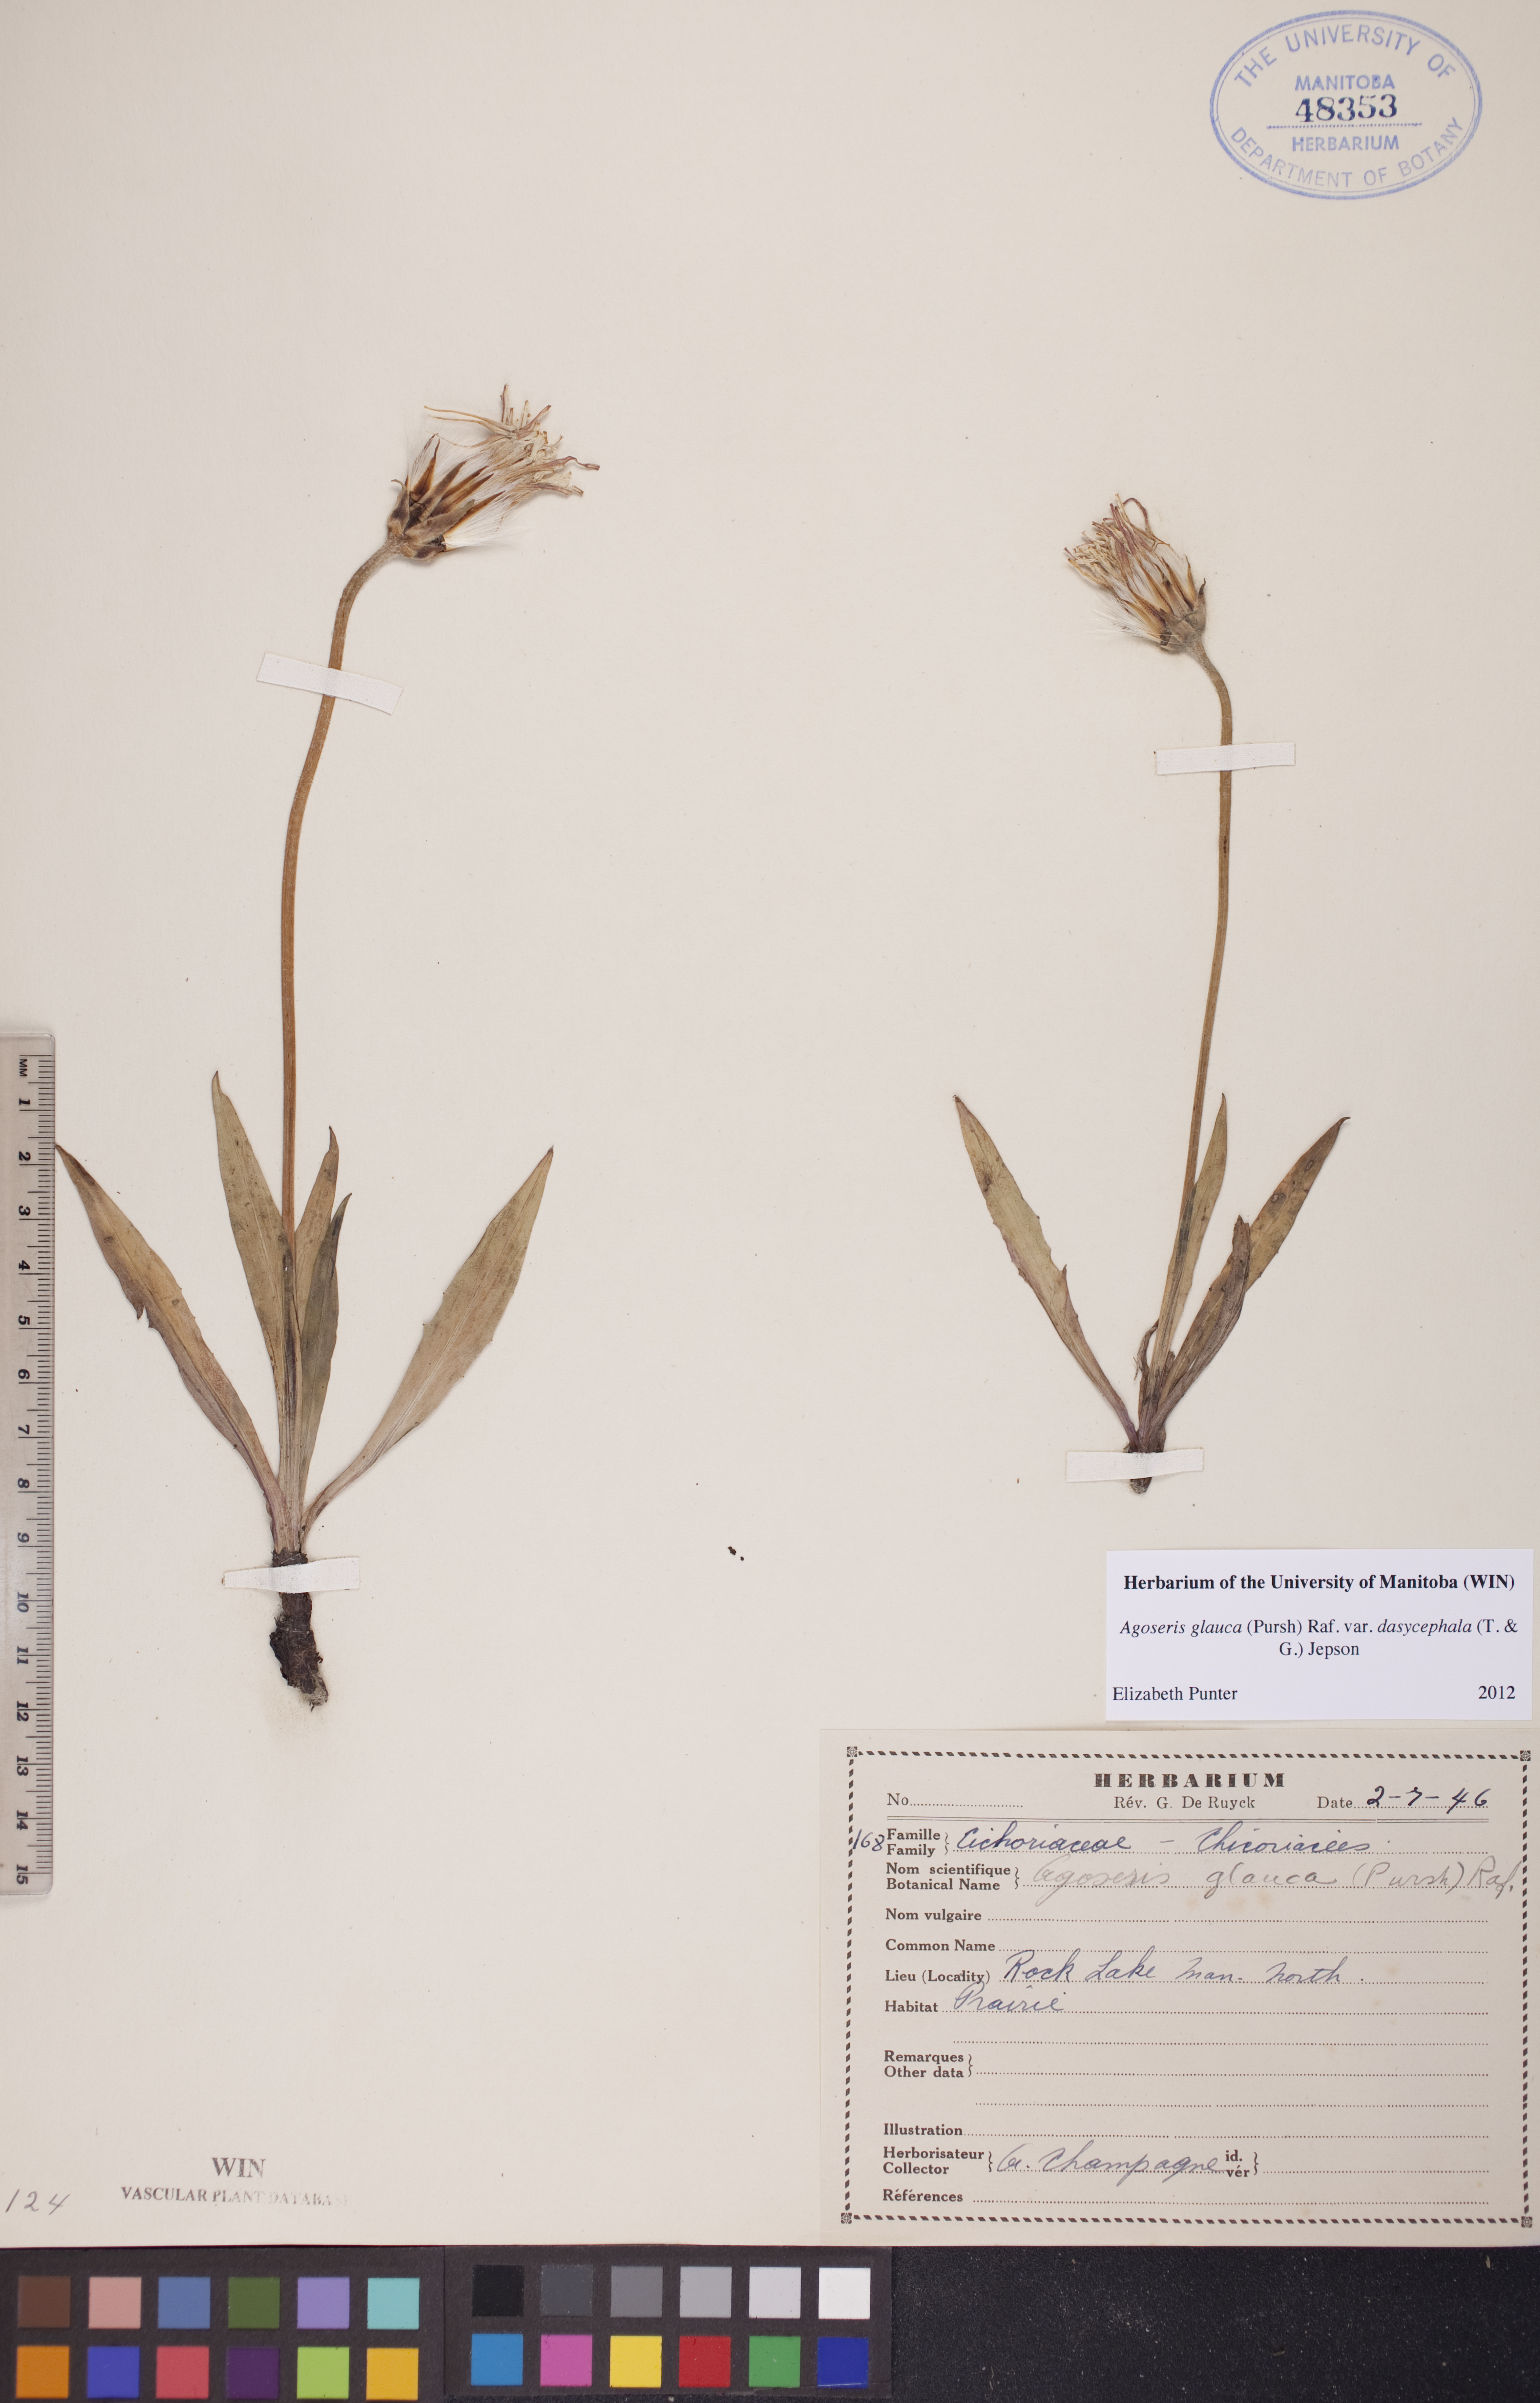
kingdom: Plantae
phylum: Tracheophyta
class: Magnoliopsida
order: Asterales
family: Asteraceae
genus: Agoseris
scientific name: Agoseris glauca
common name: Prairie agoseris
